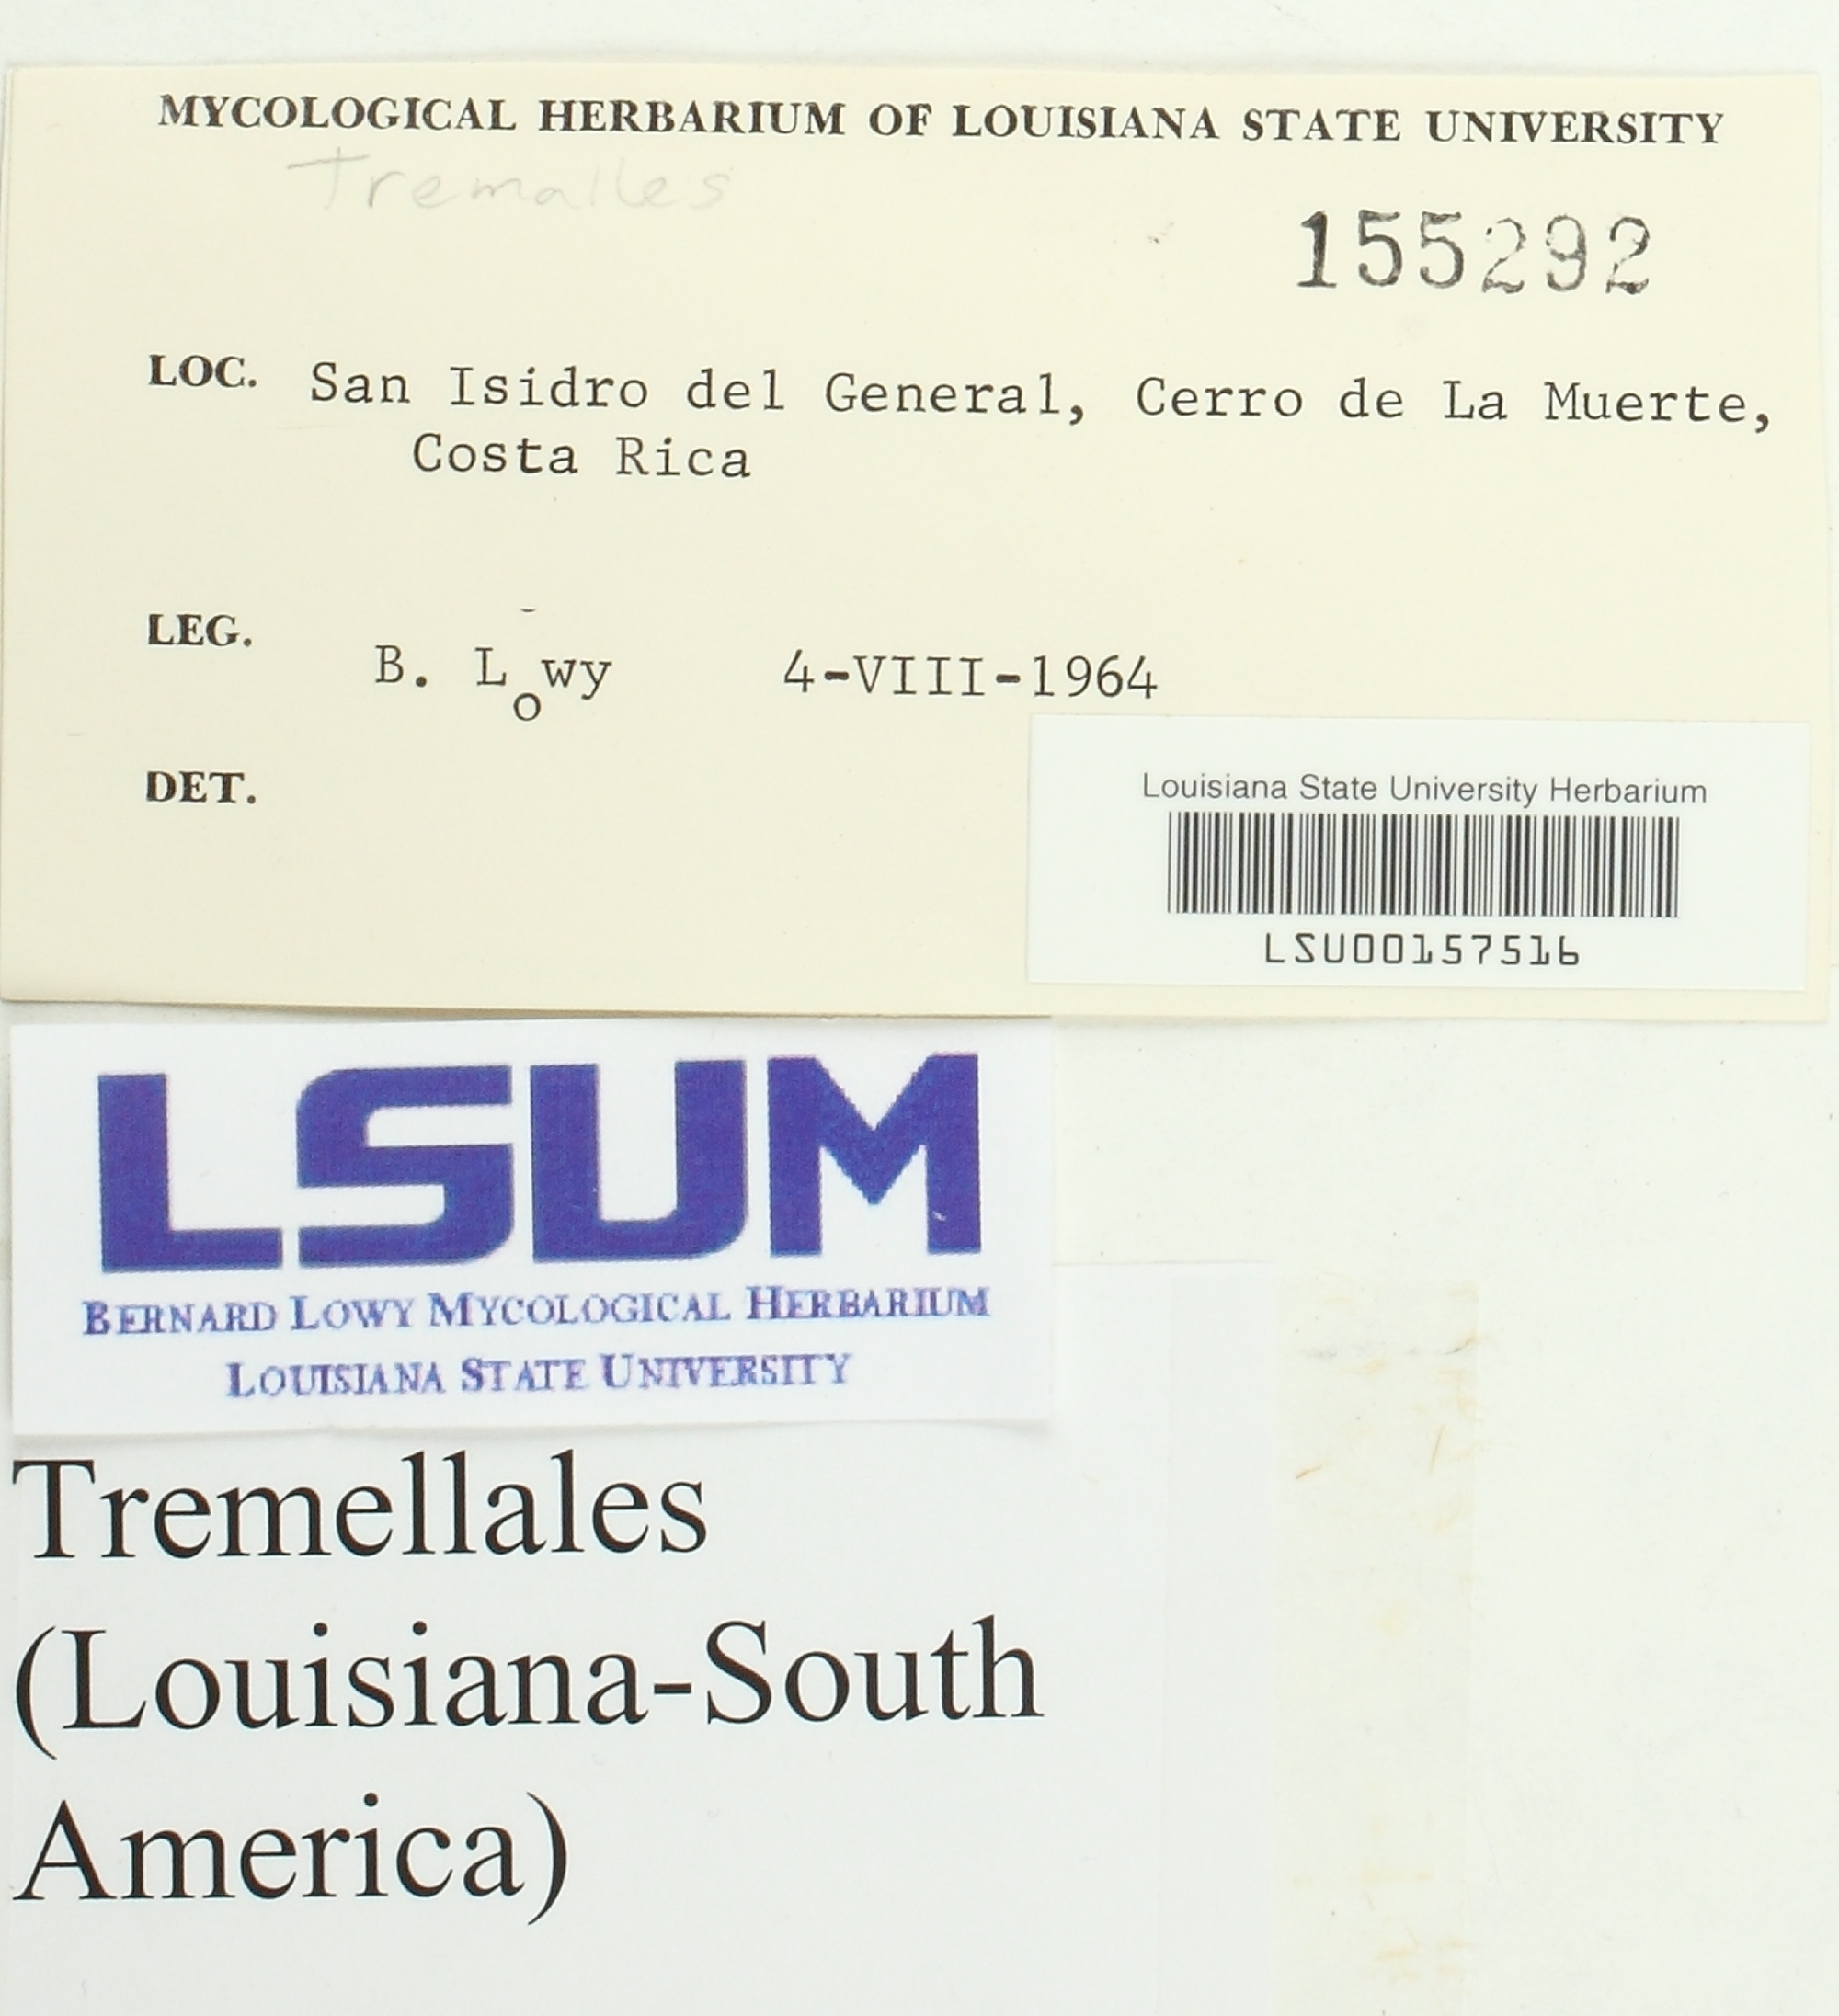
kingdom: Fungi
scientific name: Fungi
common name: Fungi
